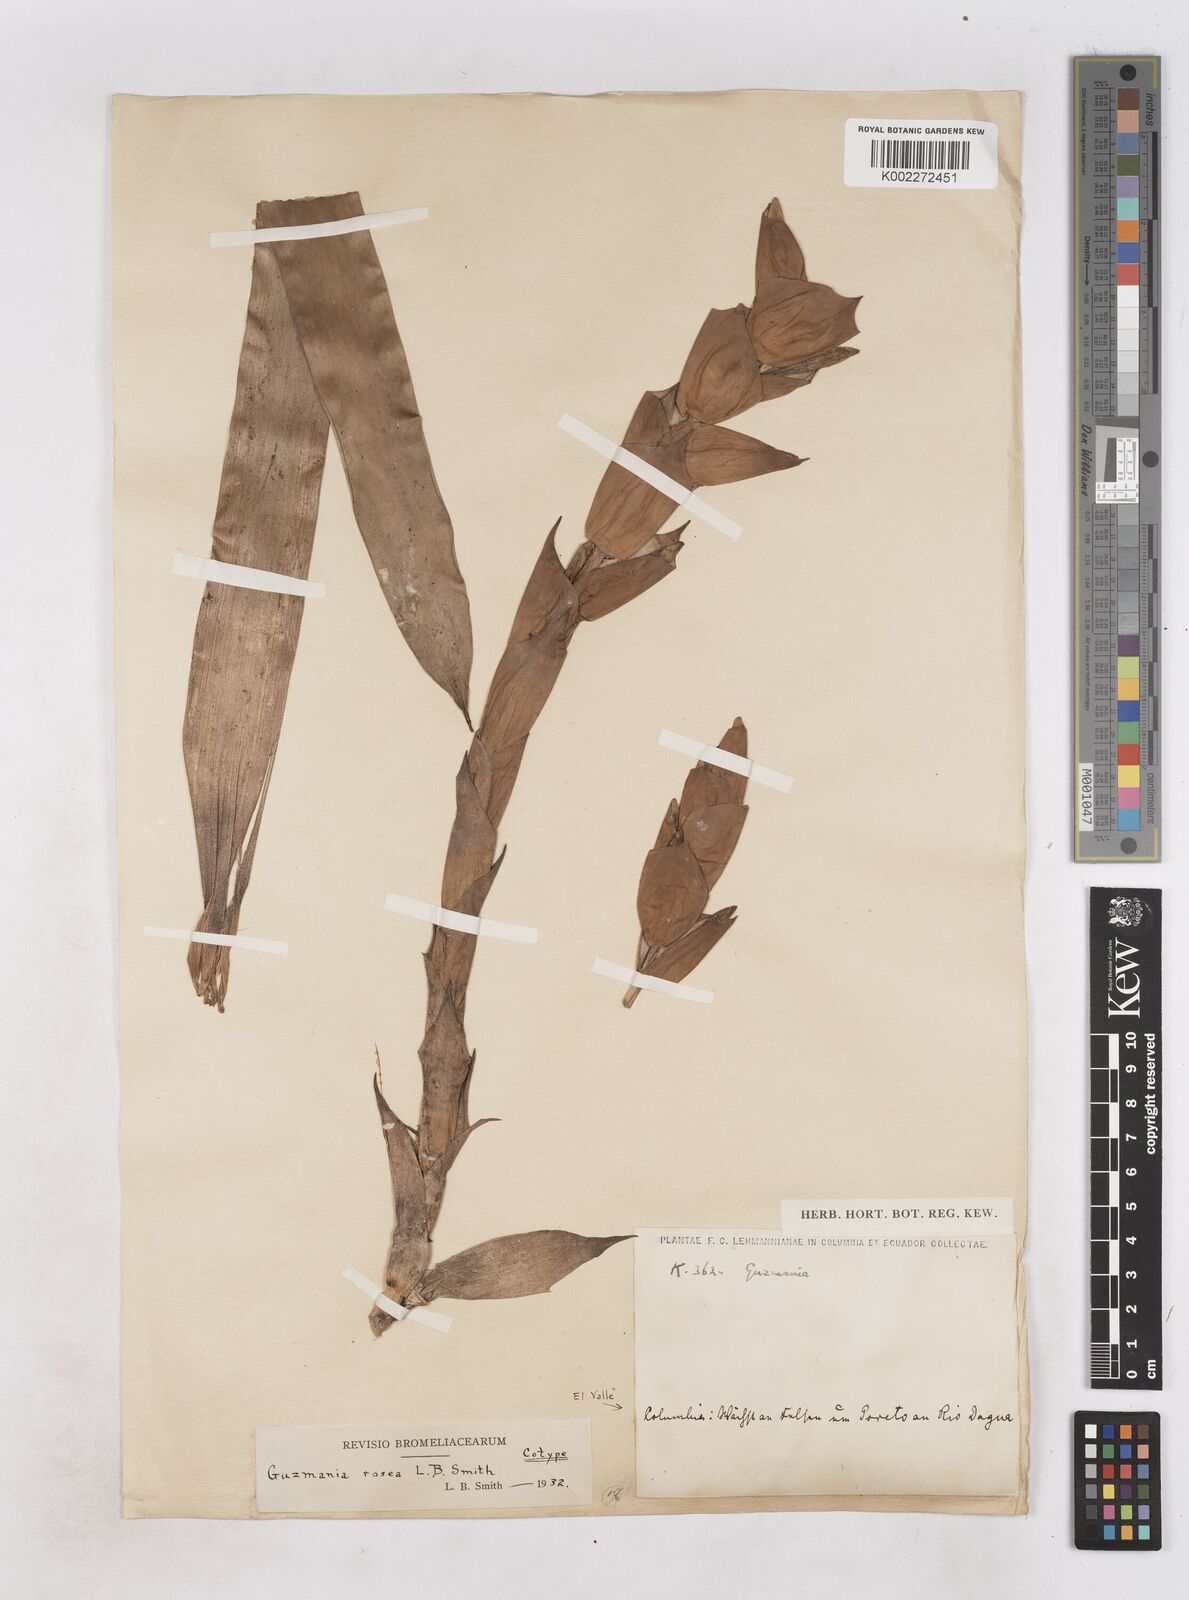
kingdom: Plantae
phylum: Tracheophyta
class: Liliopsida
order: Poales
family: Bromeliaceae
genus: Guzmania
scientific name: Guzmania sprucei
